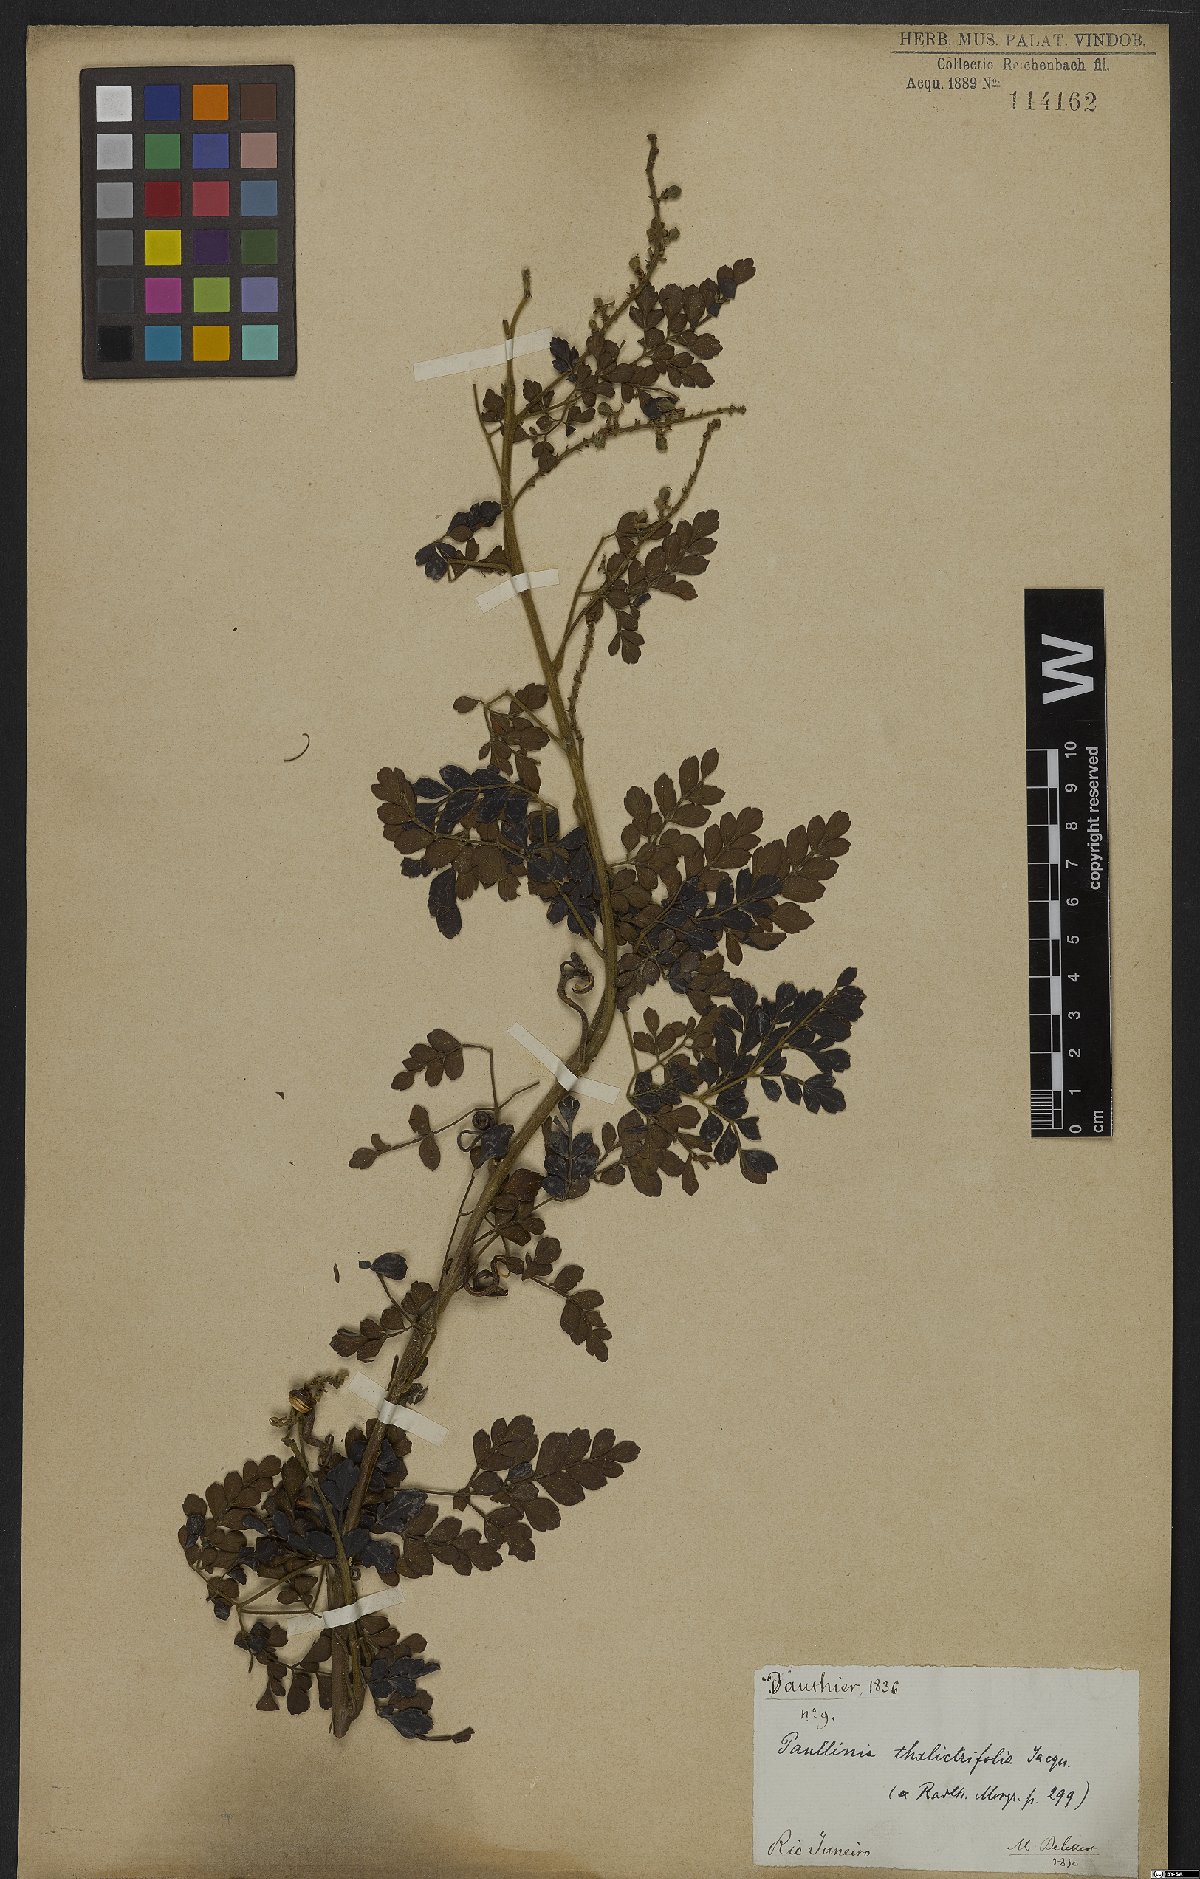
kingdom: Plantae
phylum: Tracheophyta
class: Magnoliopsida
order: Sapindales
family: Sapindaceae
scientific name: Sapindaceae
